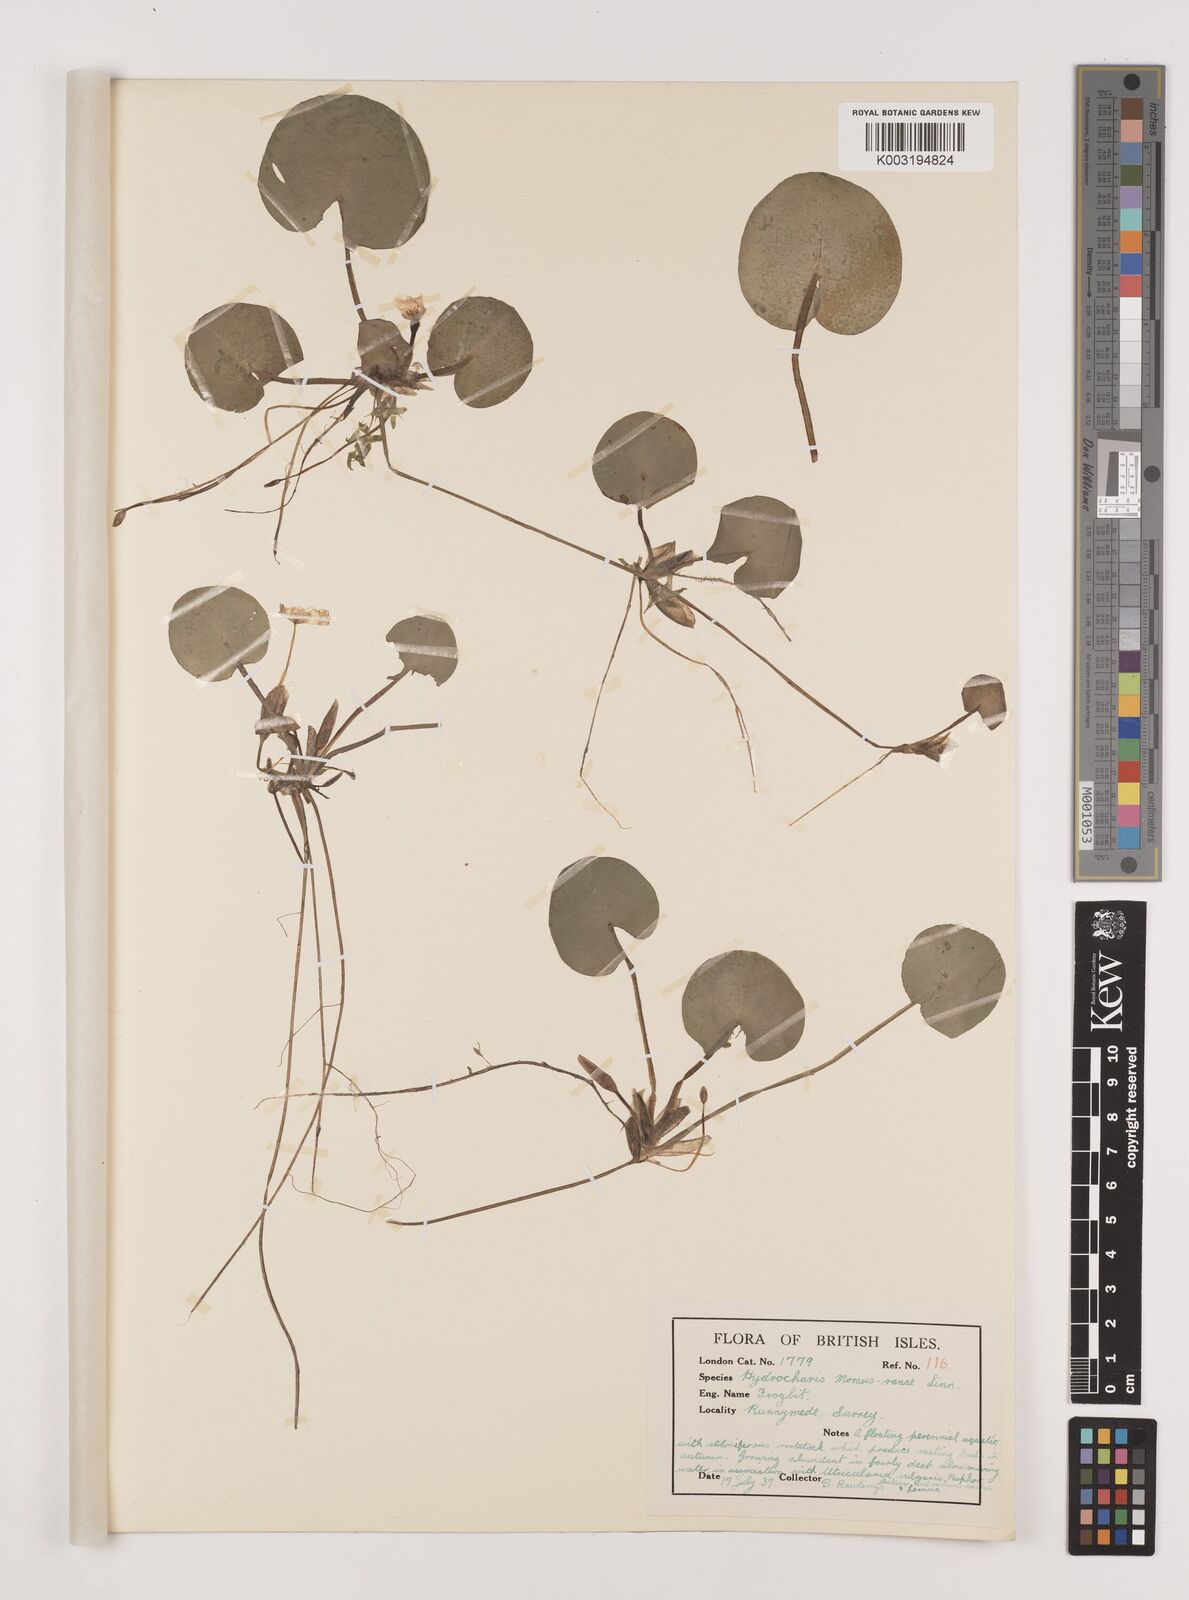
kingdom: Plantae
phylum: Tracheophyta
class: Liliopsida
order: Alismatales
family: Hydrocharitaceae
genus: Hydrocharis
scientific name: Hydrocharis morsus-ranae
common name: Frogbit
